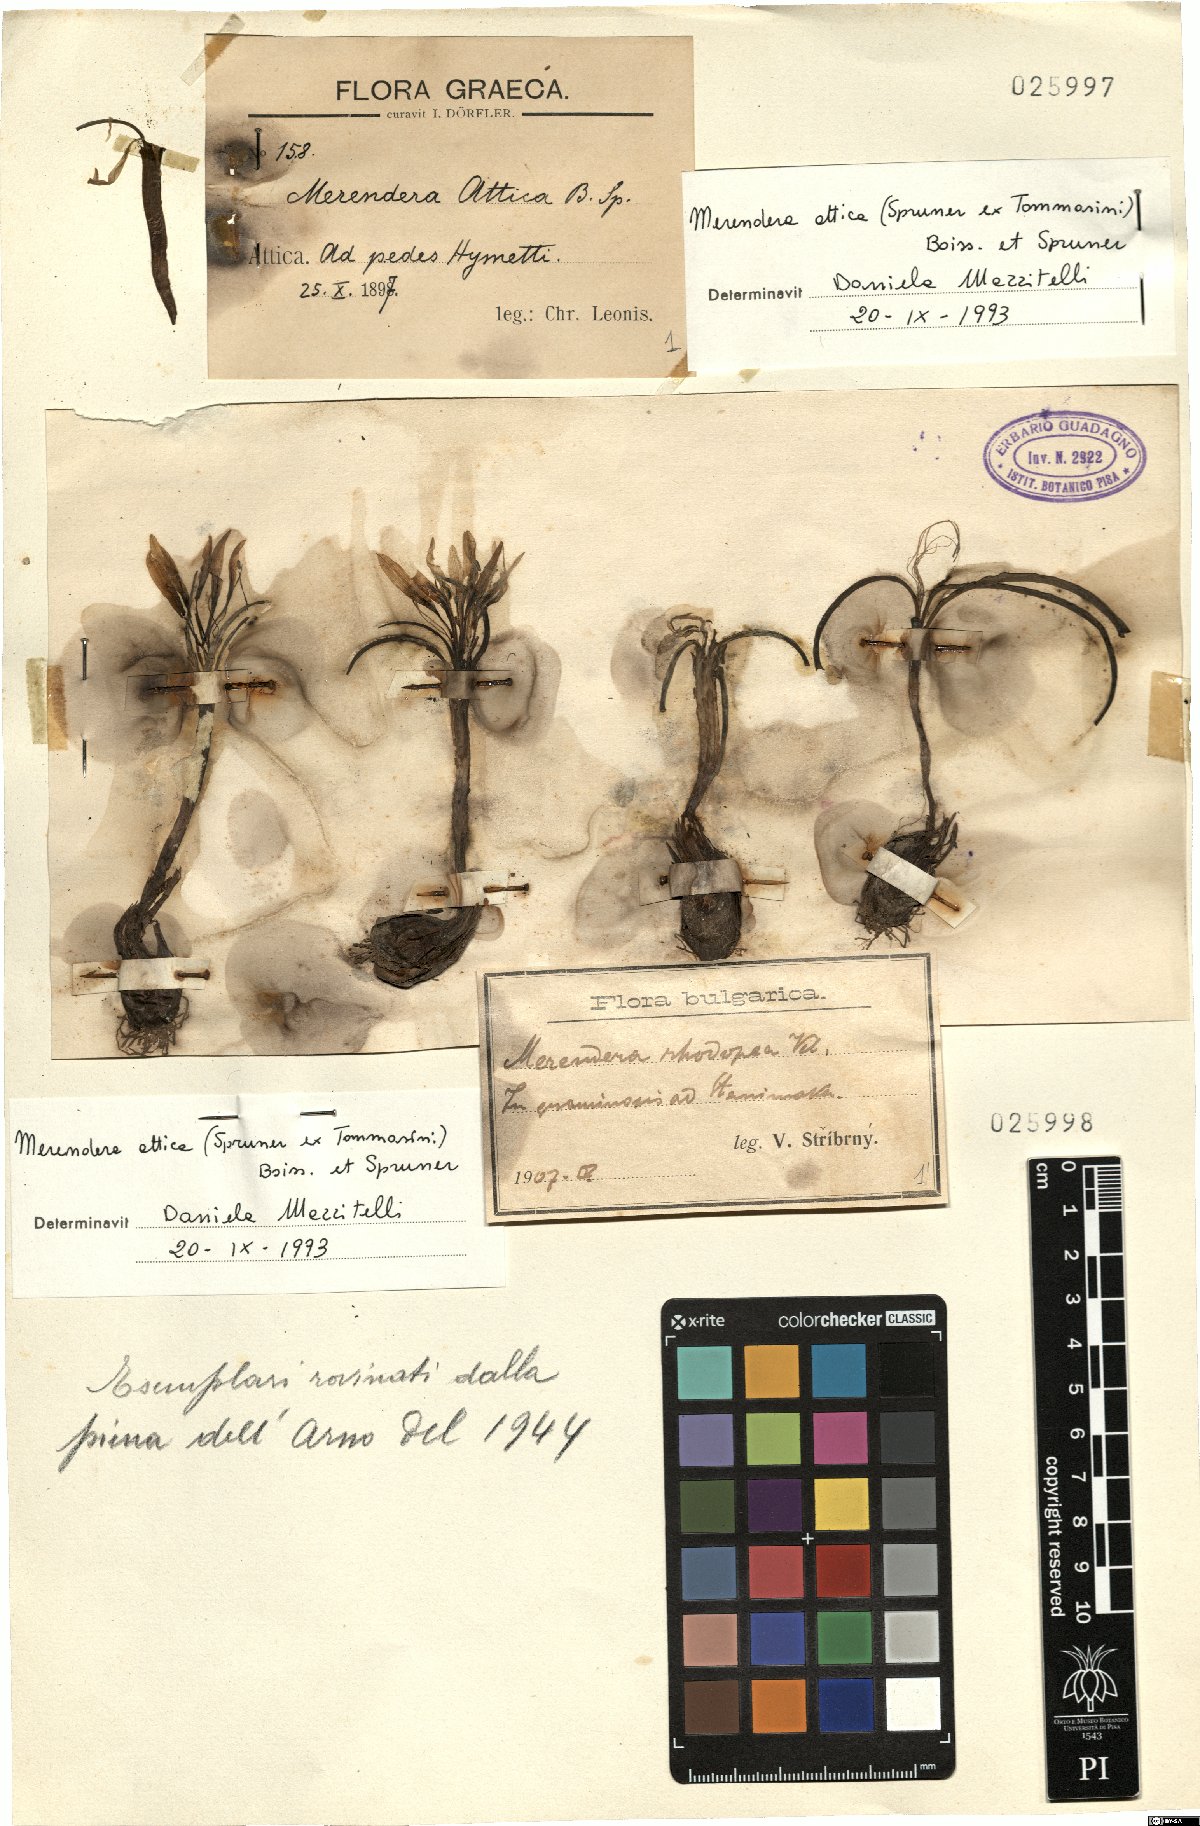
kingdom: Plantae
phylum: Tracheophyta
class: Liliopsida
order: Liliales
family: Colchicaceae
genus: Colchicum
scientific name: Colchicum atticum
